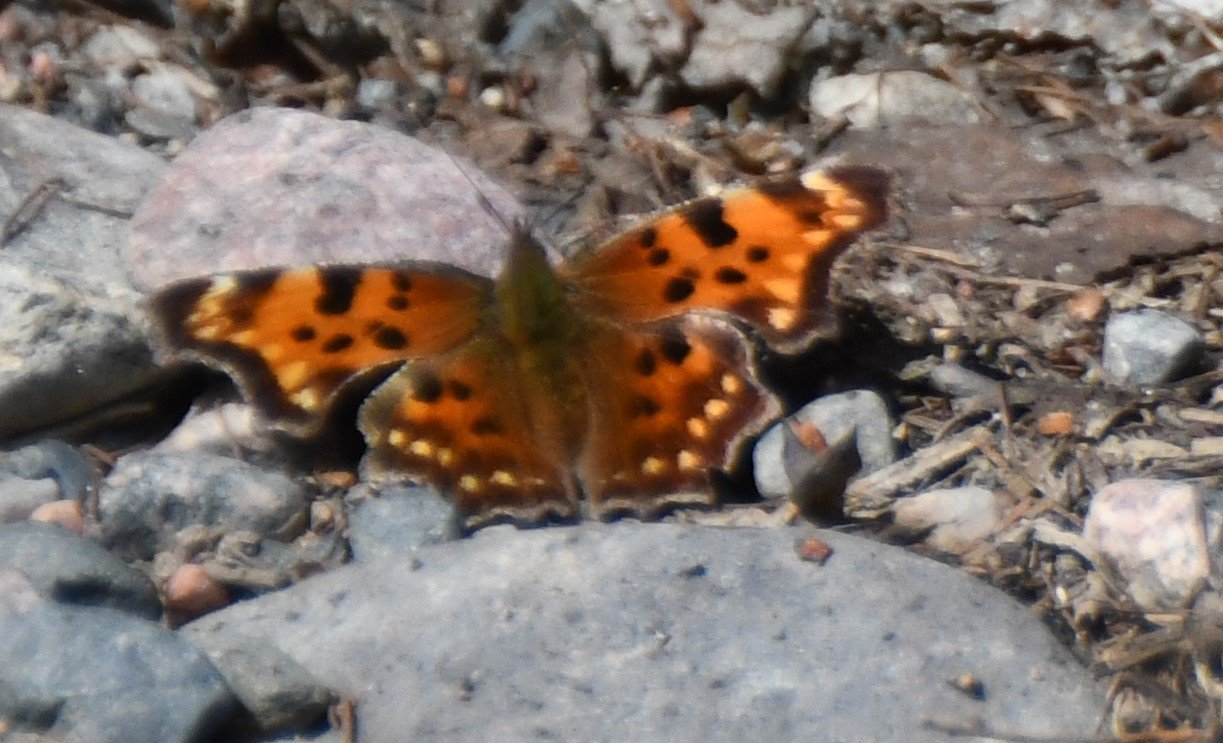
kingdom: Animalia
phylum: Arthropoda
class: Insecta
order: Lepidoptera
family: Nymphalidae
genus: Polygonia
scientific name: Polygonia faunus
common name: Green Comma
